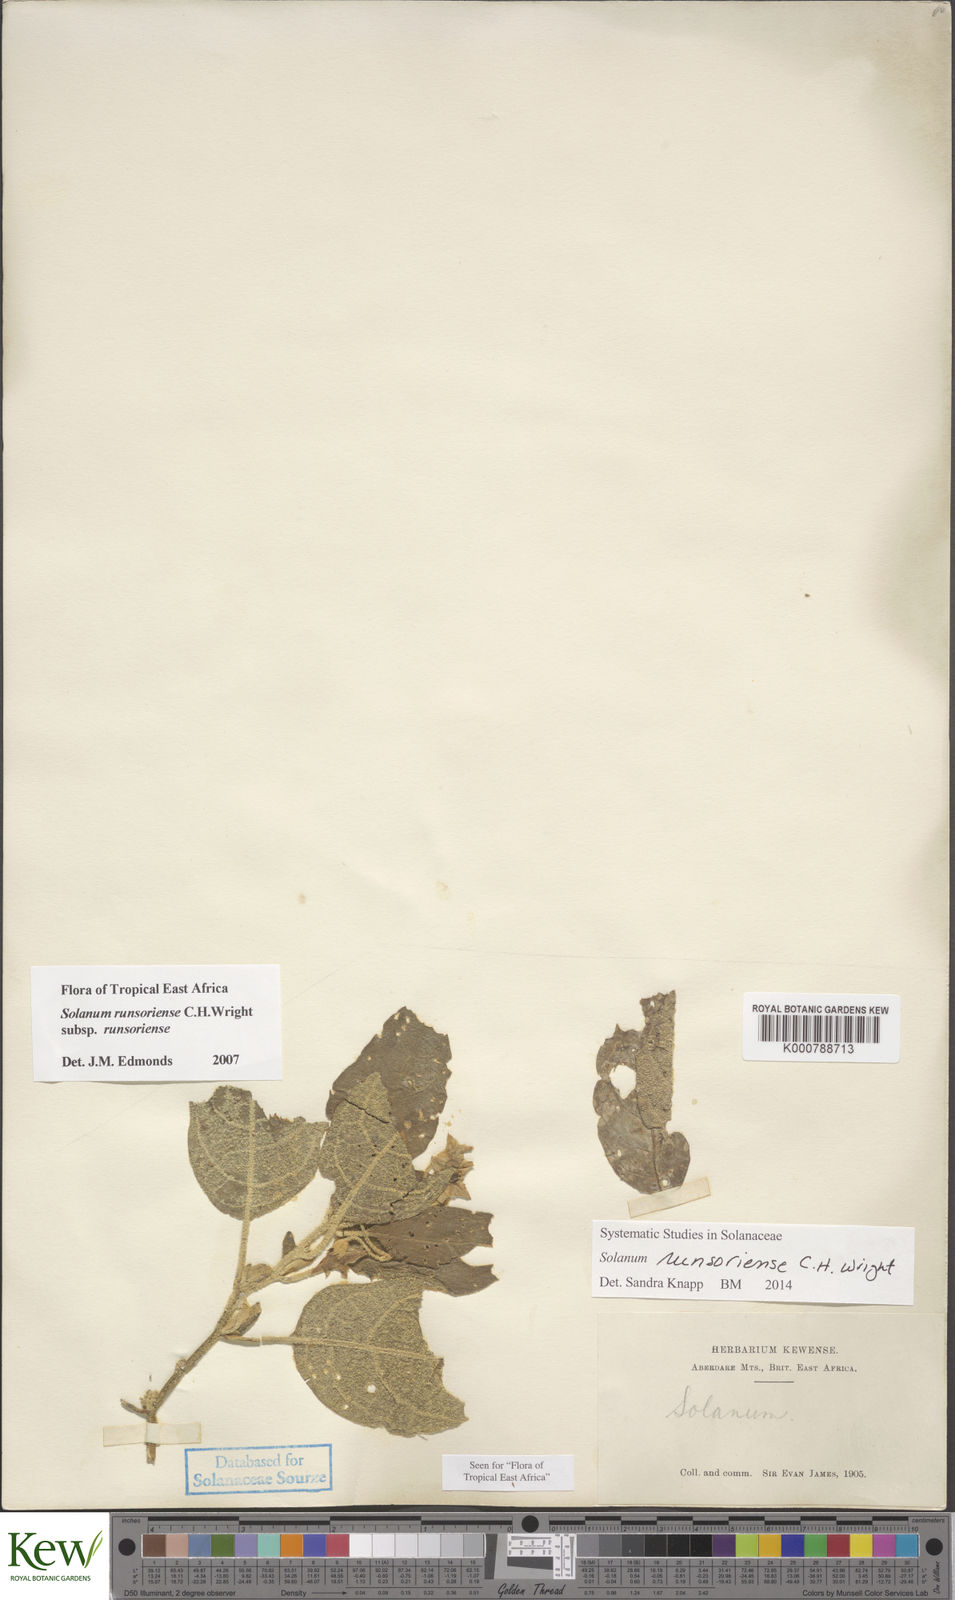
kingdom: Plantae
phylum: Tracheophyta
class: Magnoliopsida
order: Solanales
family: Solanaceae
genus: Solanum
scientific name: Solanum runsoriense
